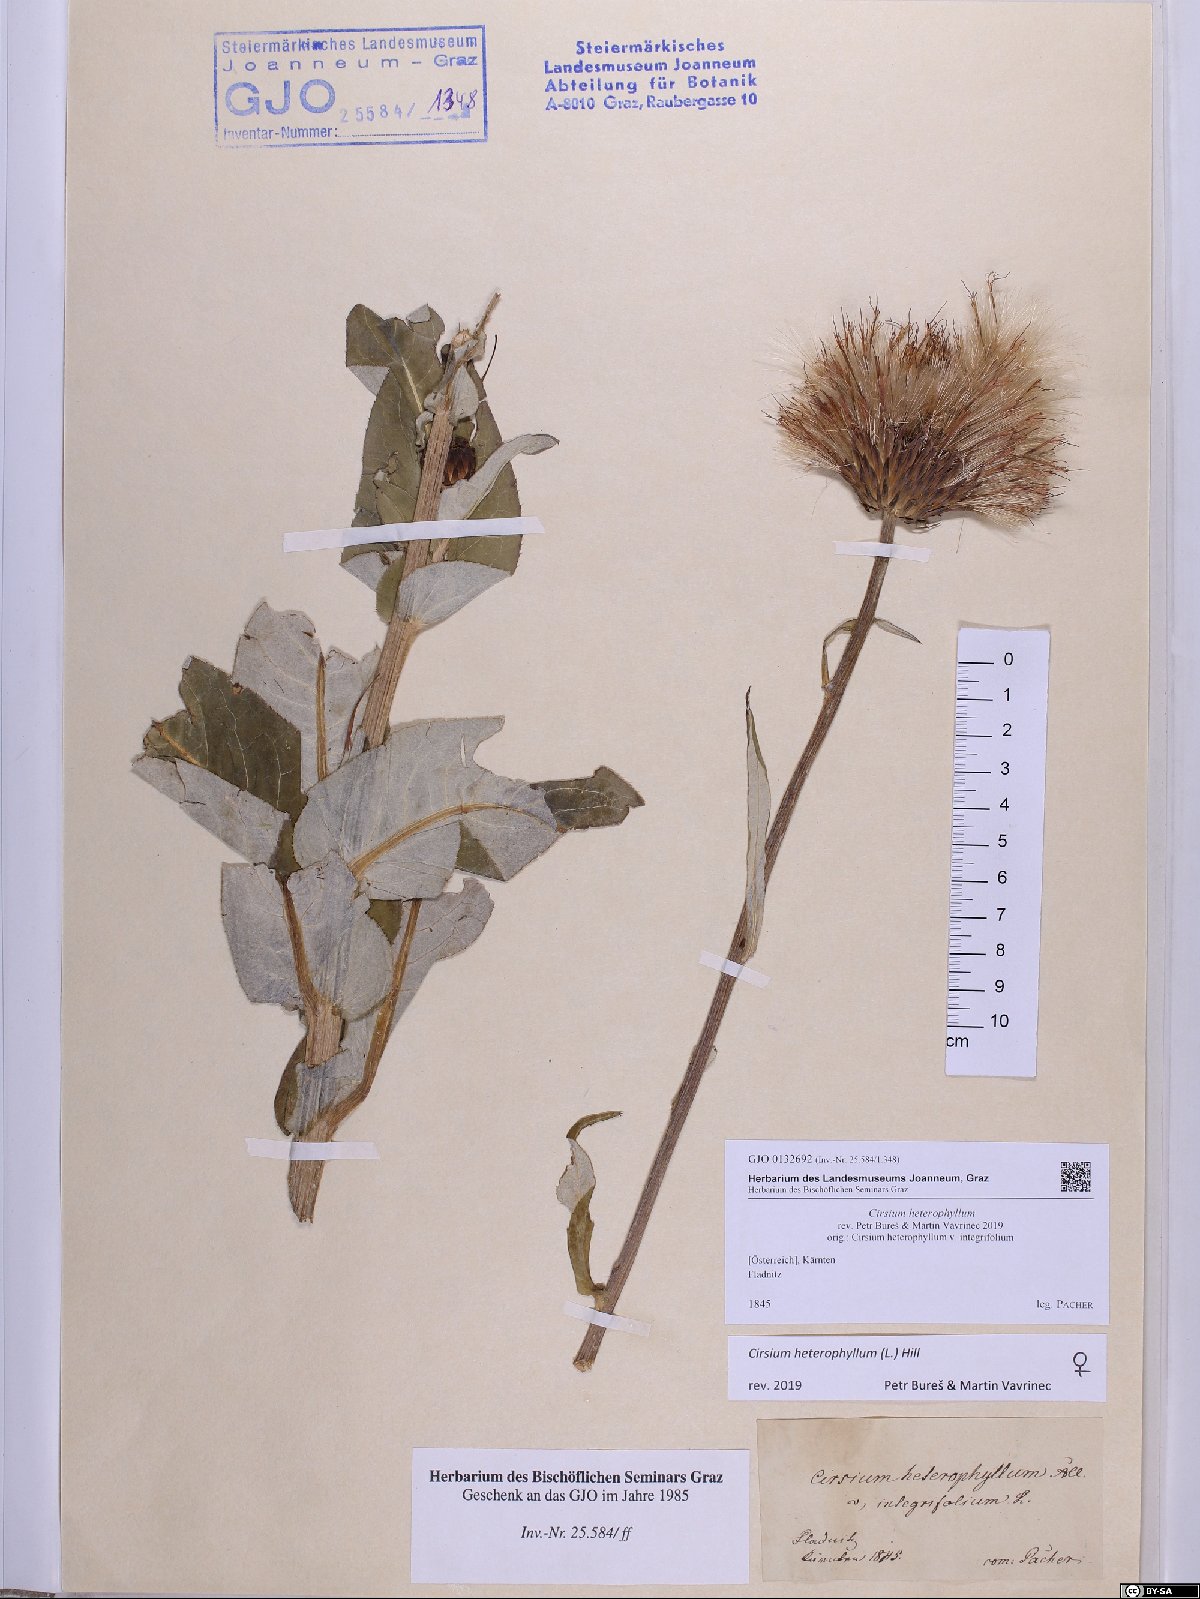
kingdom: Plantae
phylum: Tracheophyta
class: Magnoliopsida
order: Asterales
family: Asteraceae
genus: Cirsium
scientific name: Cirsium heterophyllum
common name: Melancholy thistle
